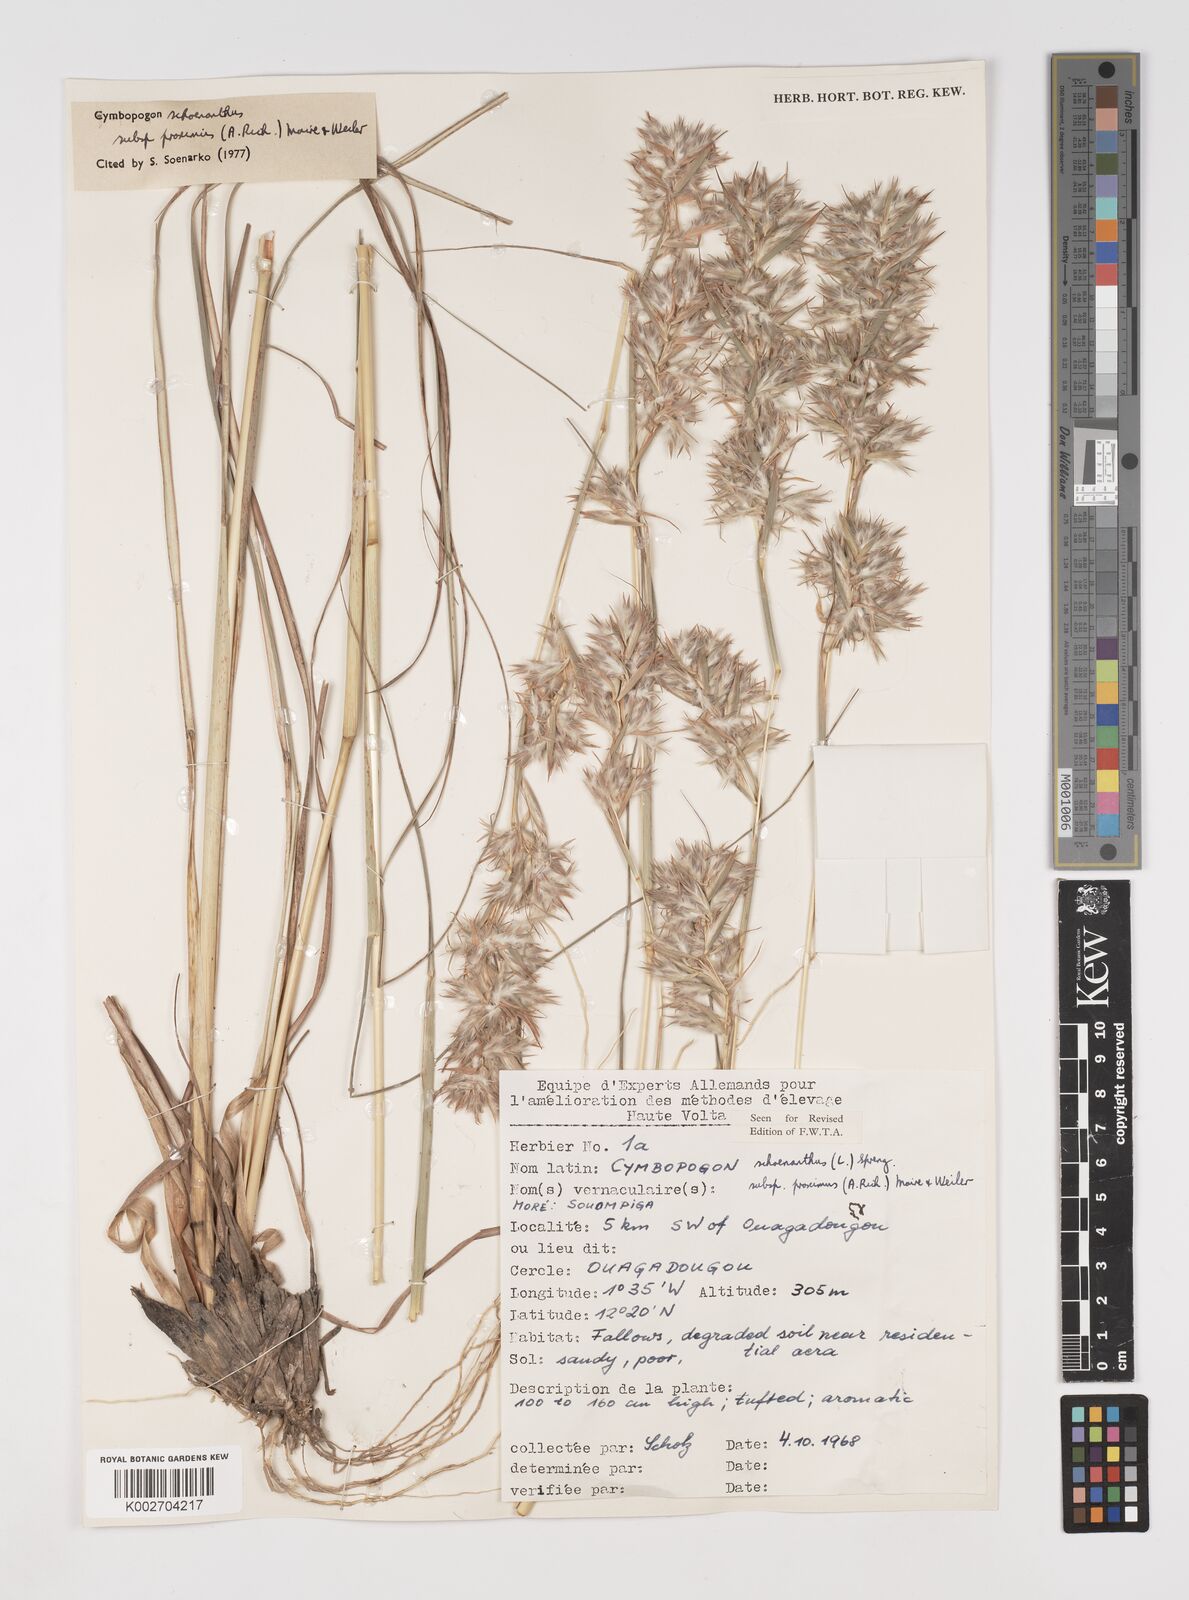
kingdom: Plantae
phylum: Tracheophyta
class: Liliopsida
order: Poales
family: Poaceae
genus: Cymbopogon
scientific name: Cymbopogon schoenanthus
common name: Geranium grass
